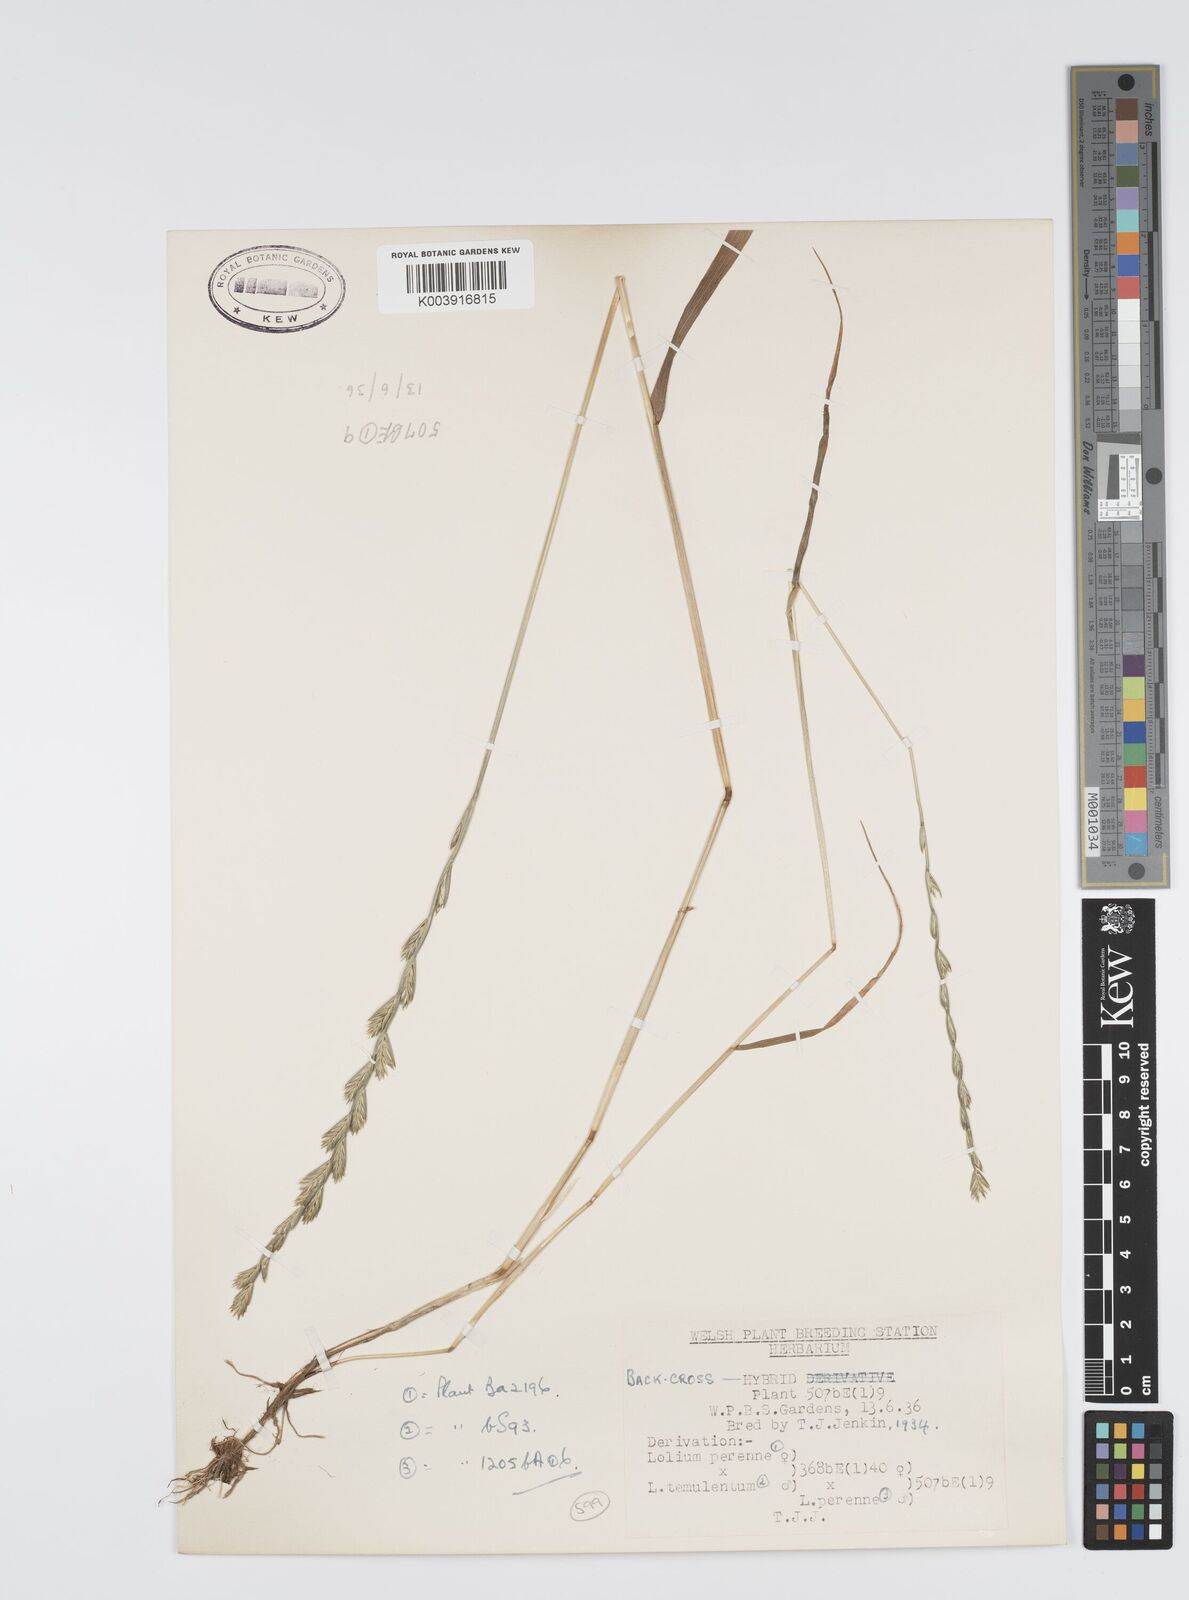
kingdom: Plantae
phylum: Tracheophyta
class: Liliopsida
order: Poales
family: Poaceae
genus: Lolium
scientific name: Lolium perenne
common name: Perennial ryegrass
